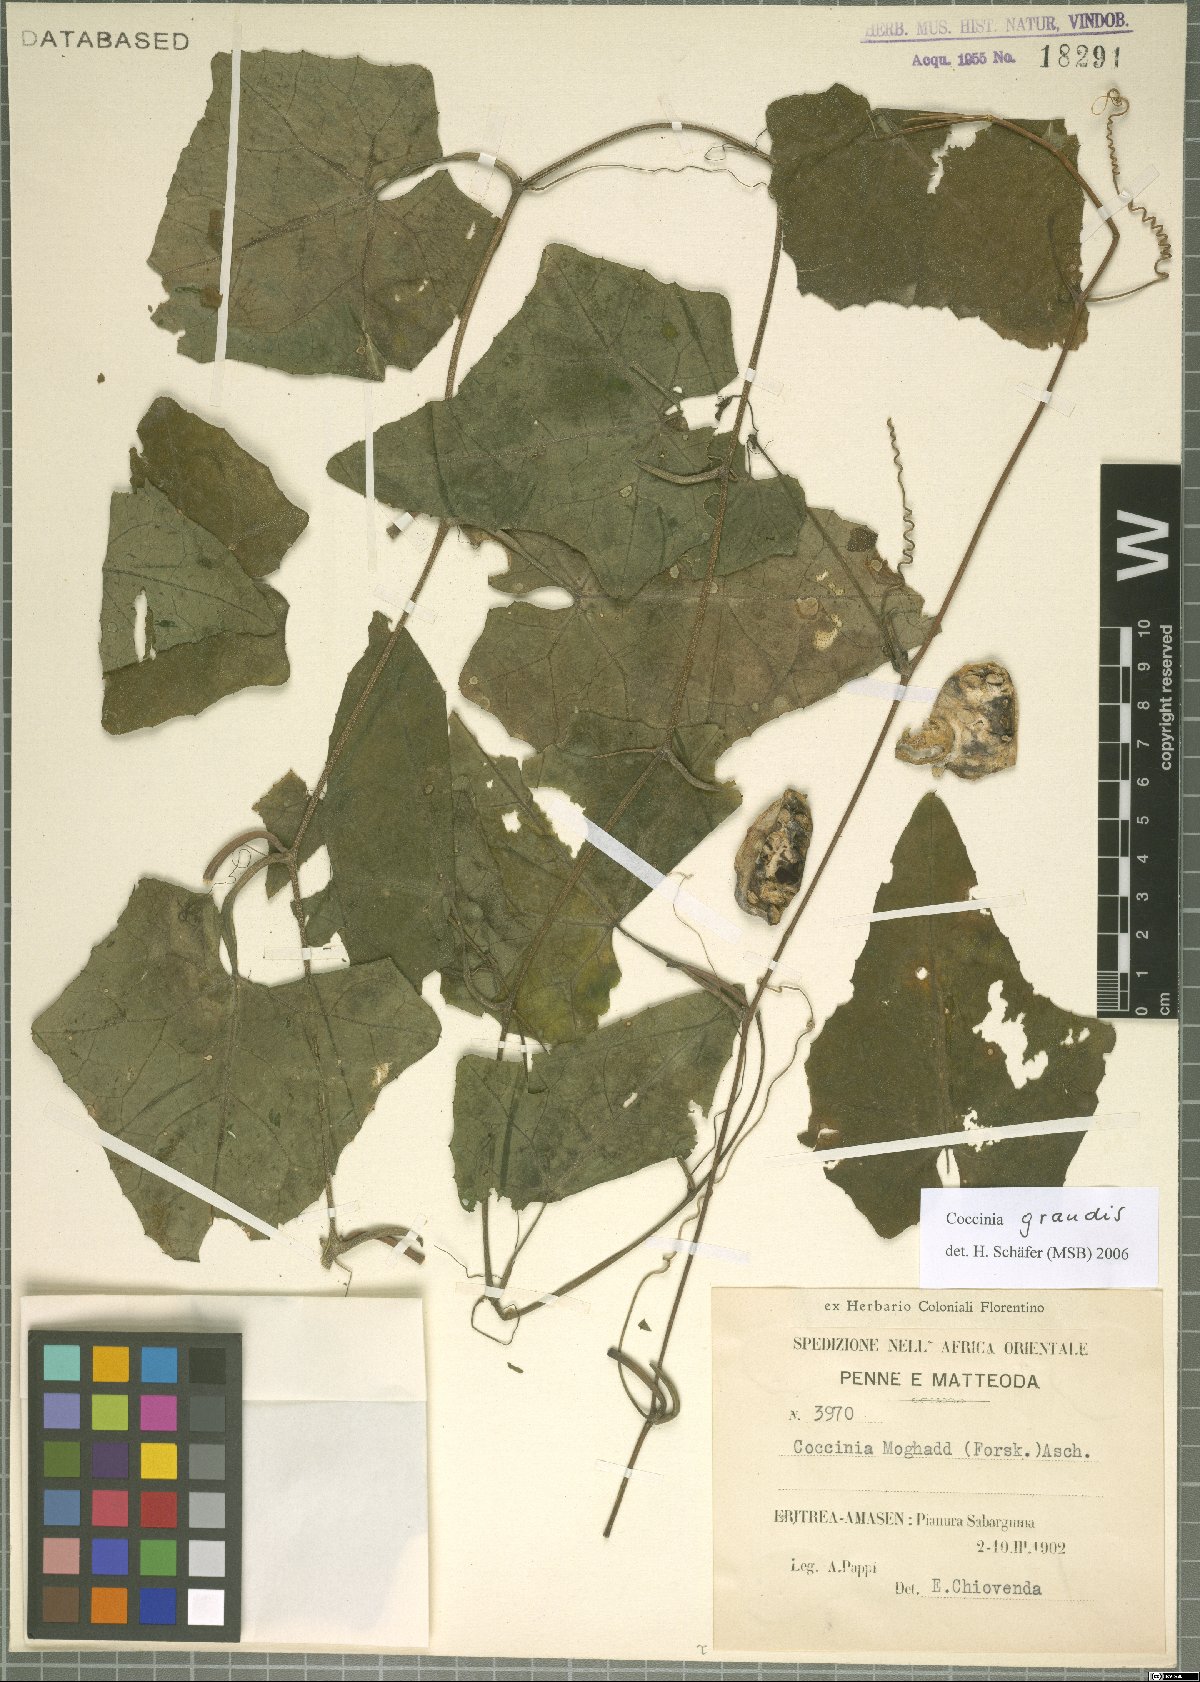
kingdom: Plantae
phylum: Tracheophyta
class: Magnoliopsida
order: Cucurbitales
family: Cucurbitaceae
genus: Coccinia
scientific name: Coccinia grandis
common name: Ivy gourd
